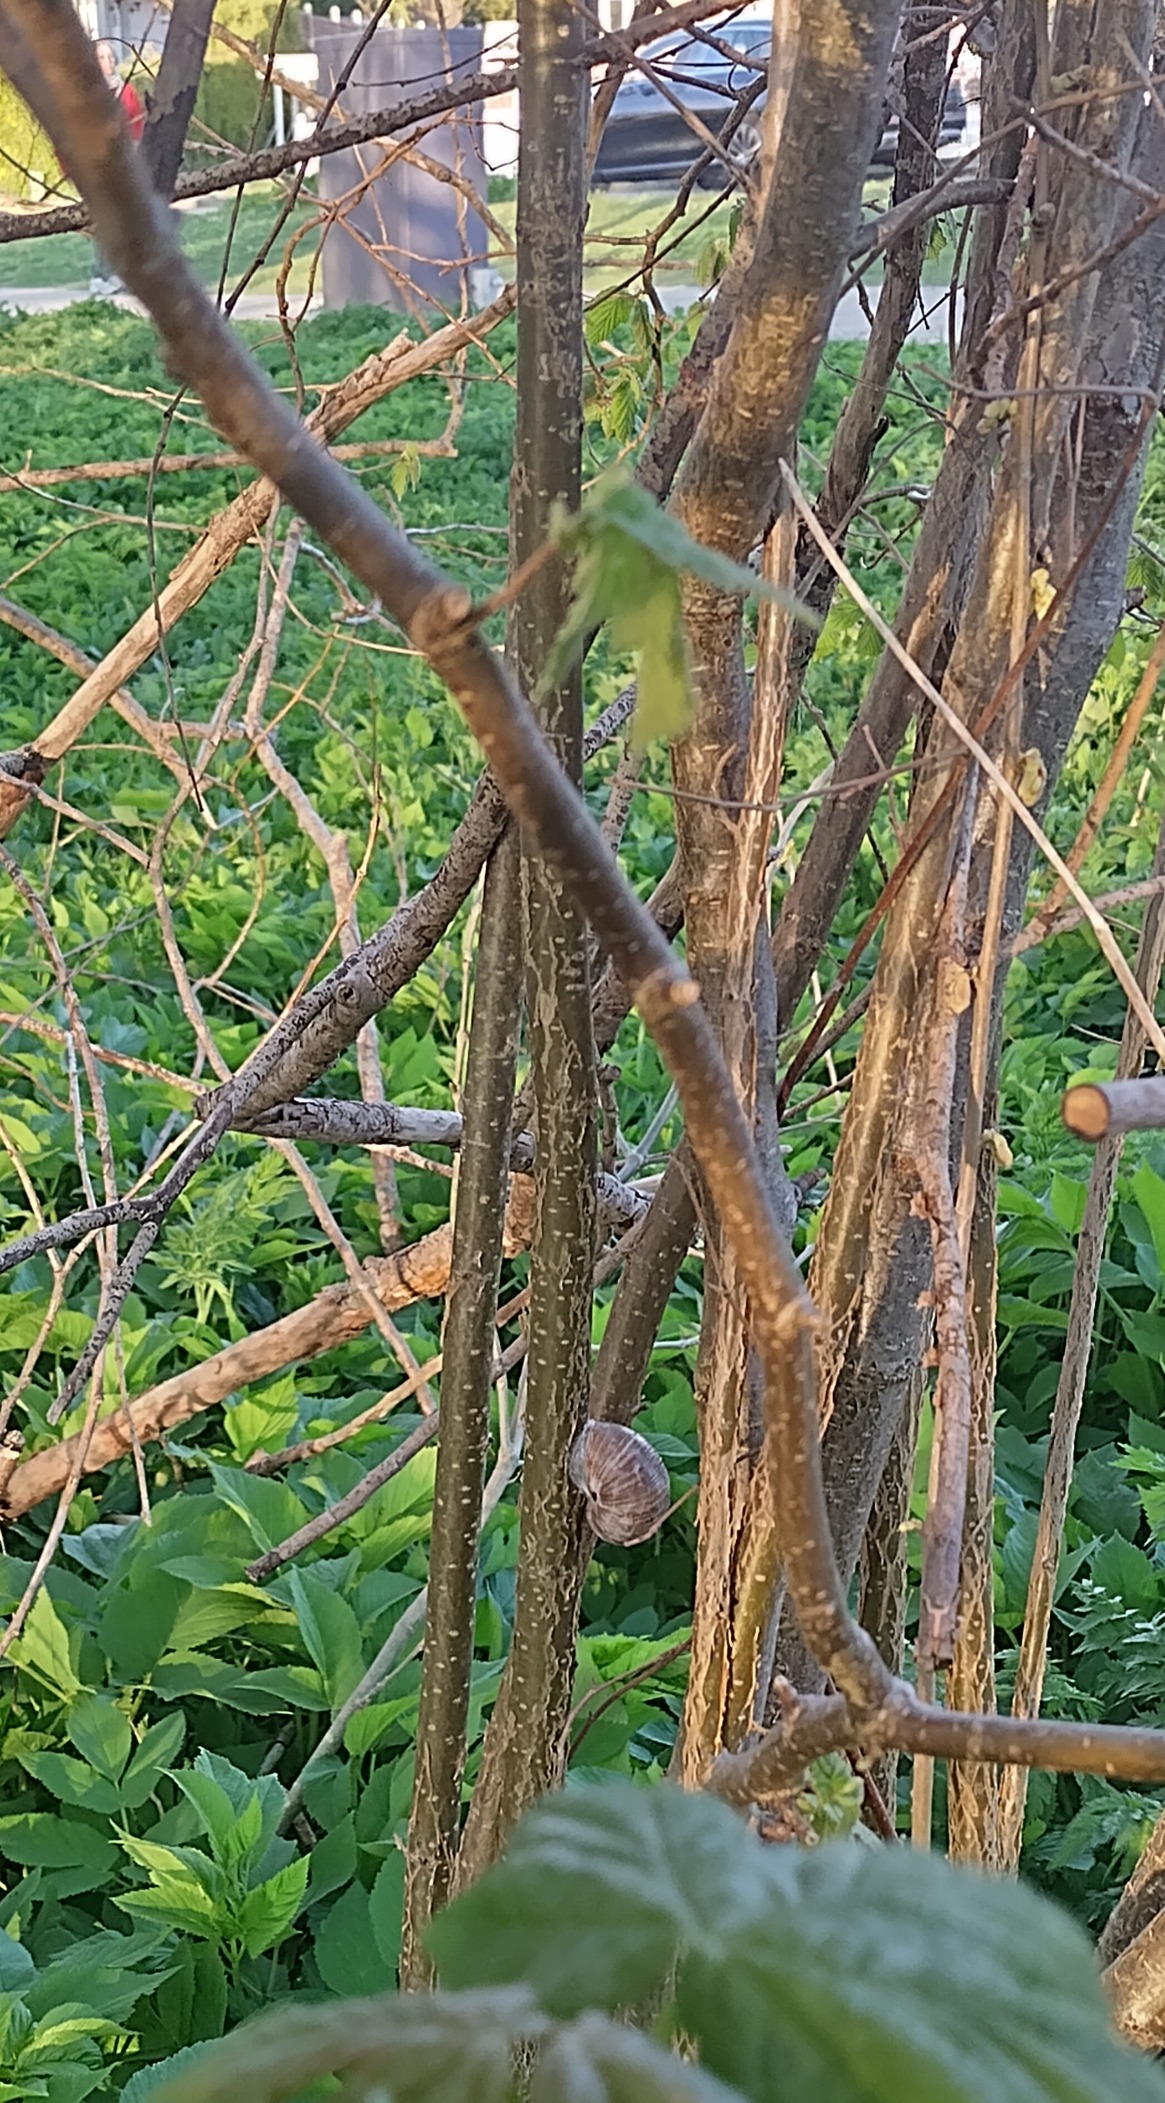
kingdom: Animalia
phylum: Mollusca
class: Gastropoda
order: Stylommatophora
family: Helicidae
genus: Helix
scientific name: Helix pomatia
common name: Vinbjergsnegl
